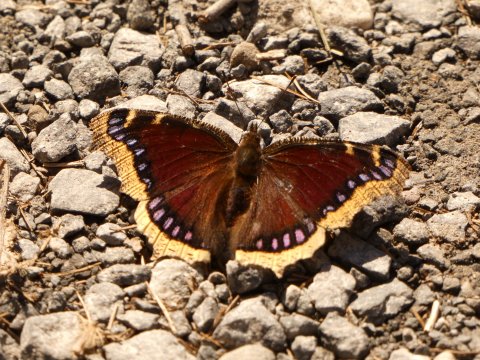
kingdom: Animalia
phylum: Arthropoda
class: Insecta
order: Lepidoptera
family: Nymphalidae
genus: Nymphalis
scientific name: Nymphalis antiopa
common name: Mourning Cloak
